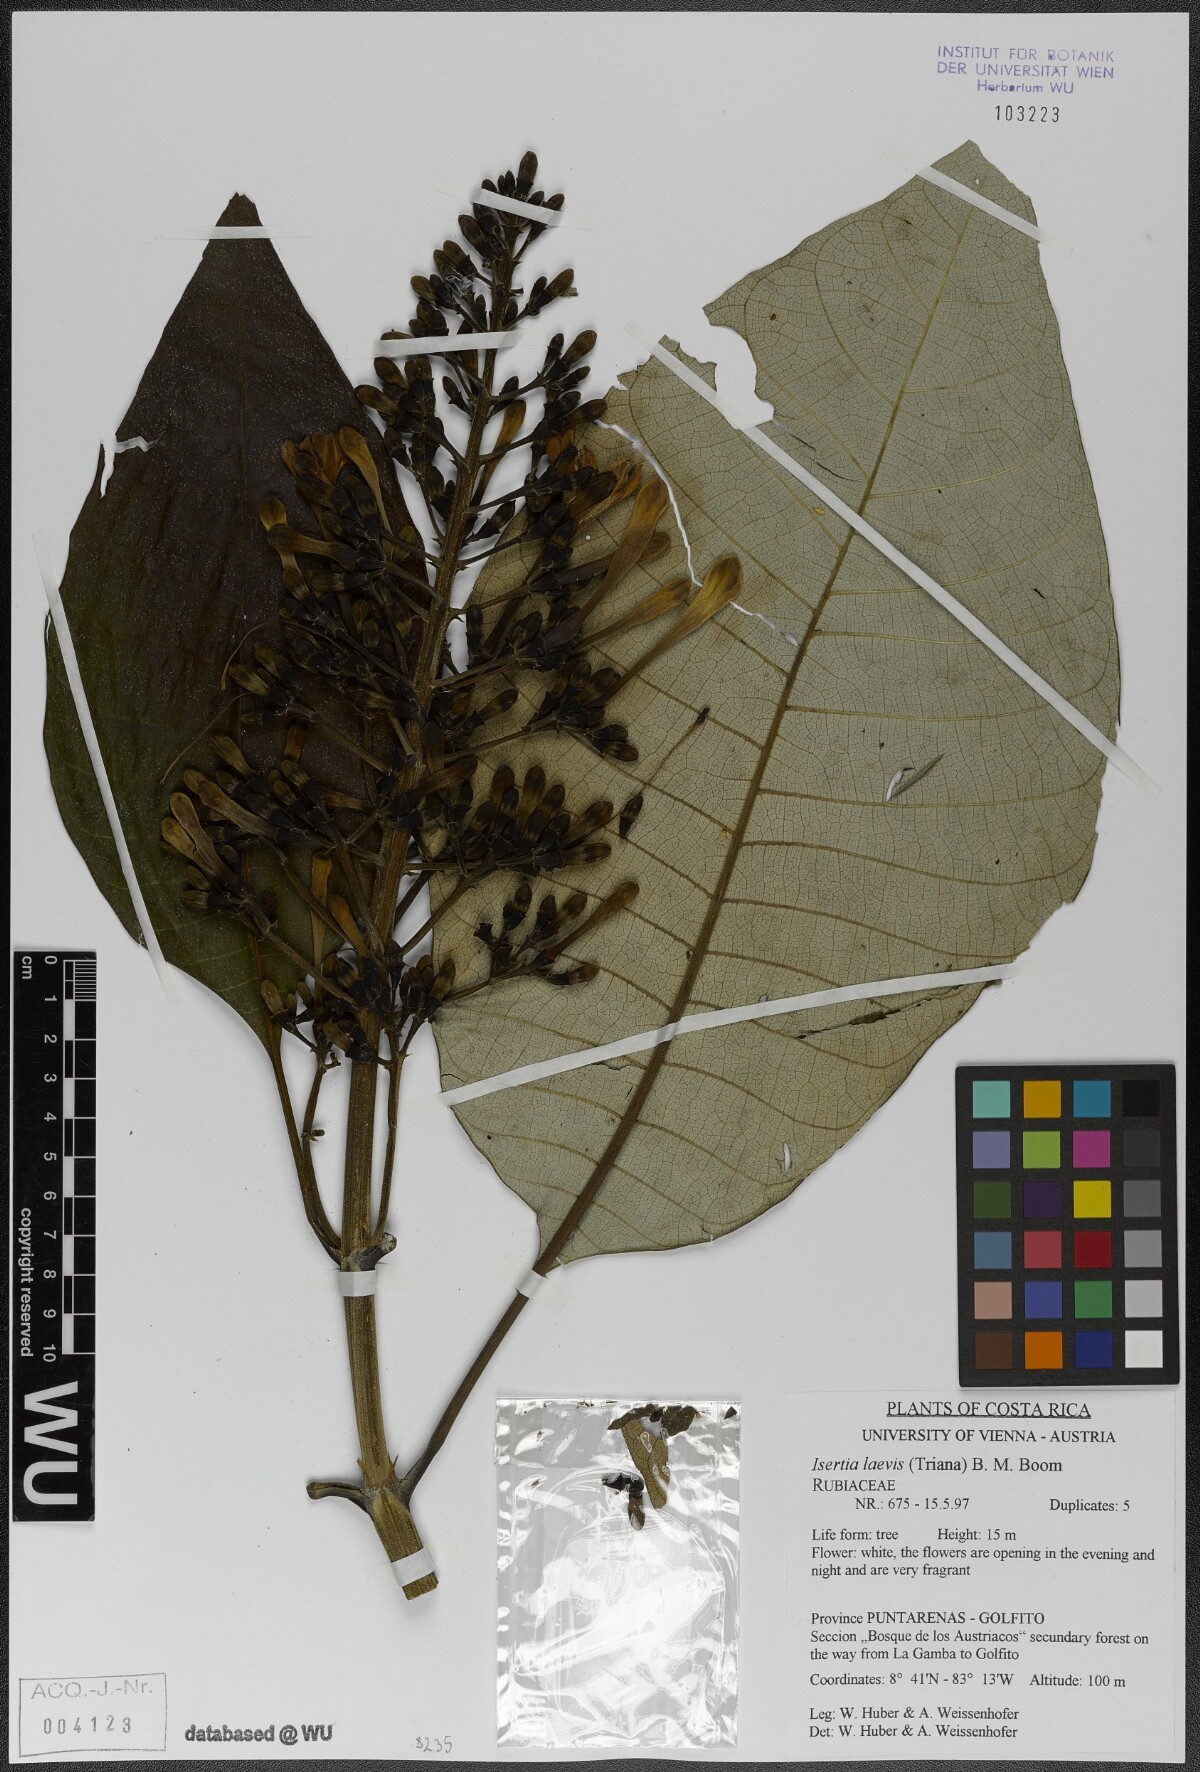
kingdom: Plantae
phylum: Tracheophyta
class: Magnoliopsida
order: Gentianales
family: Rubiaceae
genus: Isertia
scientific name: Isertia laevis
